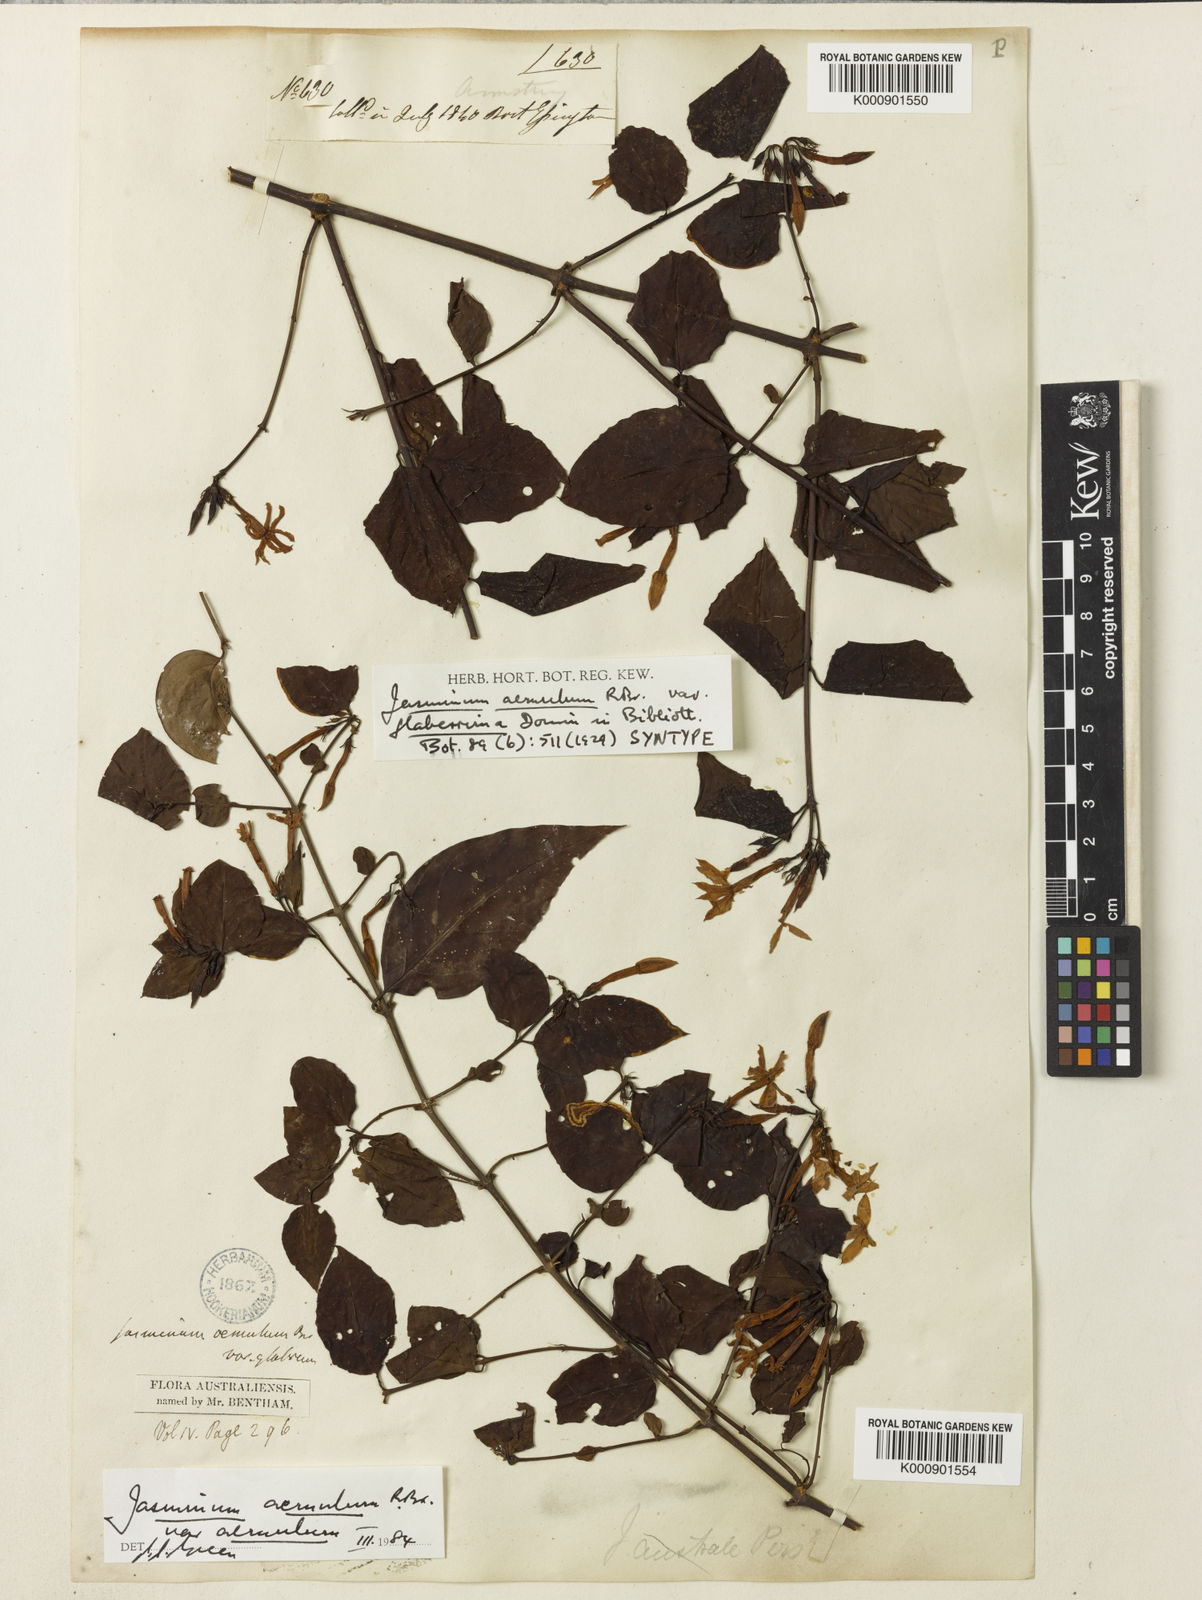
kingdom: Plantae
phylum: Tracheophyta
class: Magnoliopsida
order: Lamiales
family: Oleaceae
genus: Jasminum
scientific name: Jasminum
